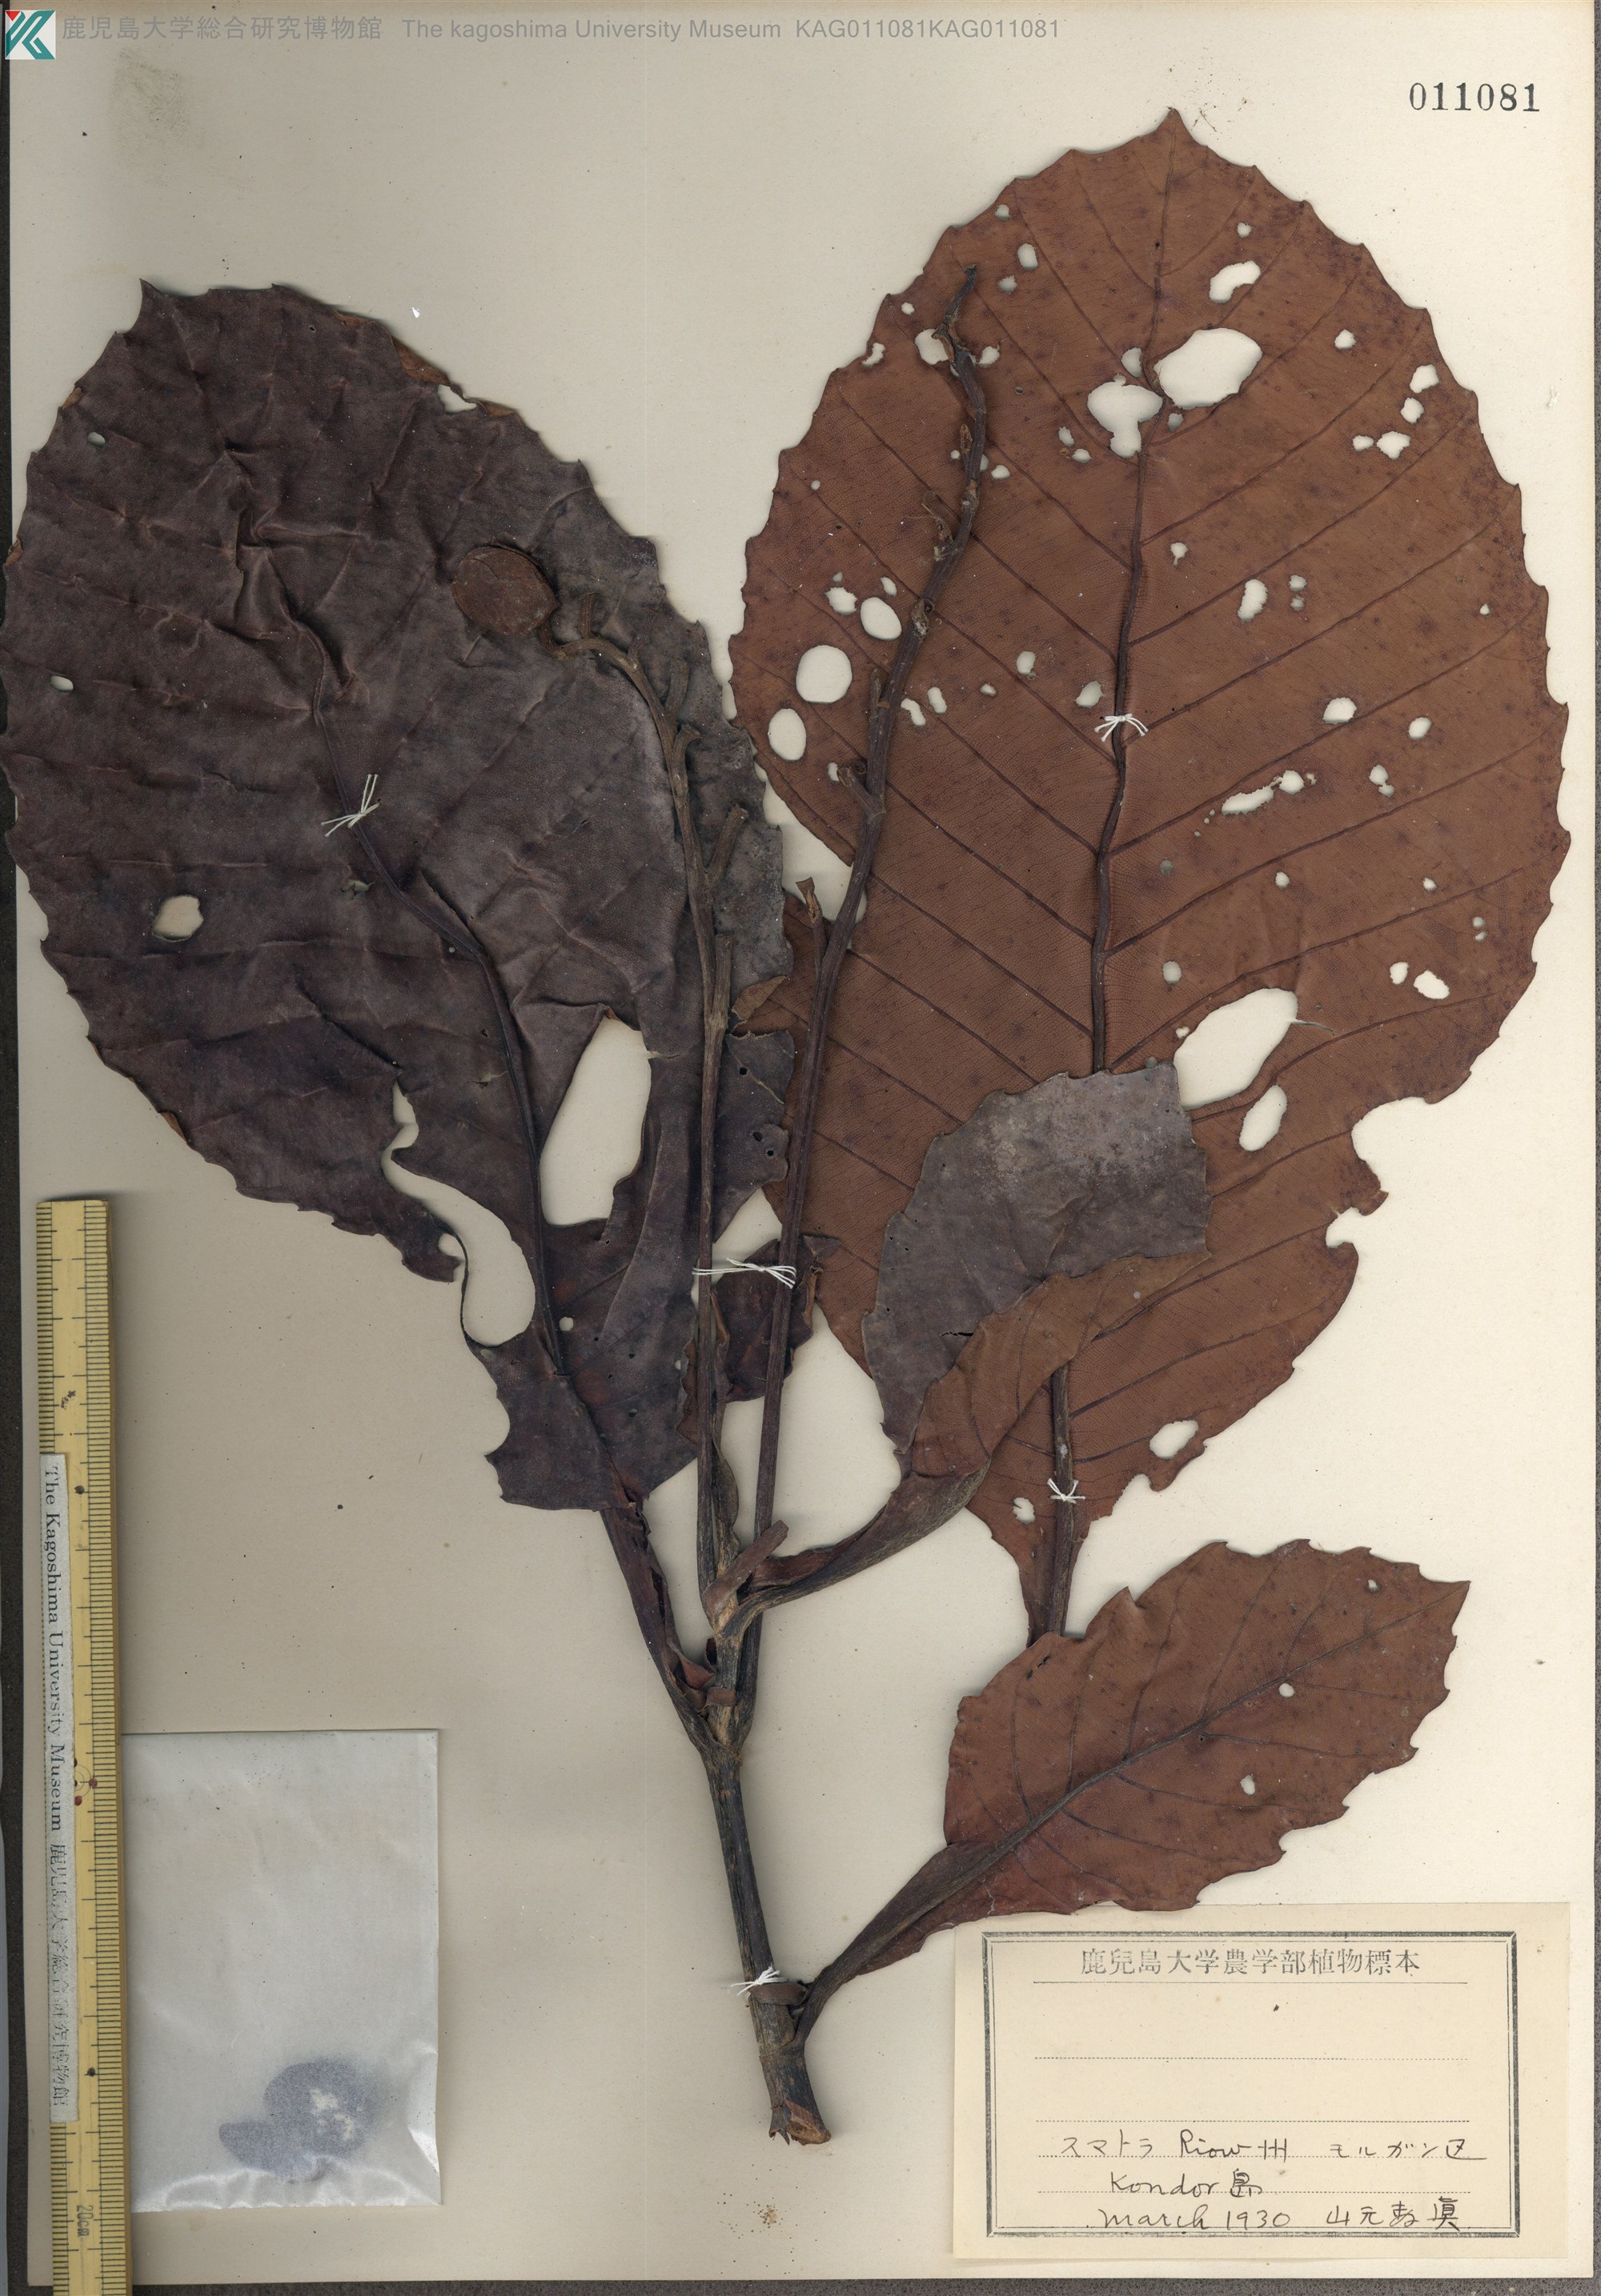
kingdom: Plantae
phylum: Tracheophyta
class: Magnoliopsida
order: Dilleniales
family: Dilleniaceae
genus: Dillenia
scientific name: Dillenia
